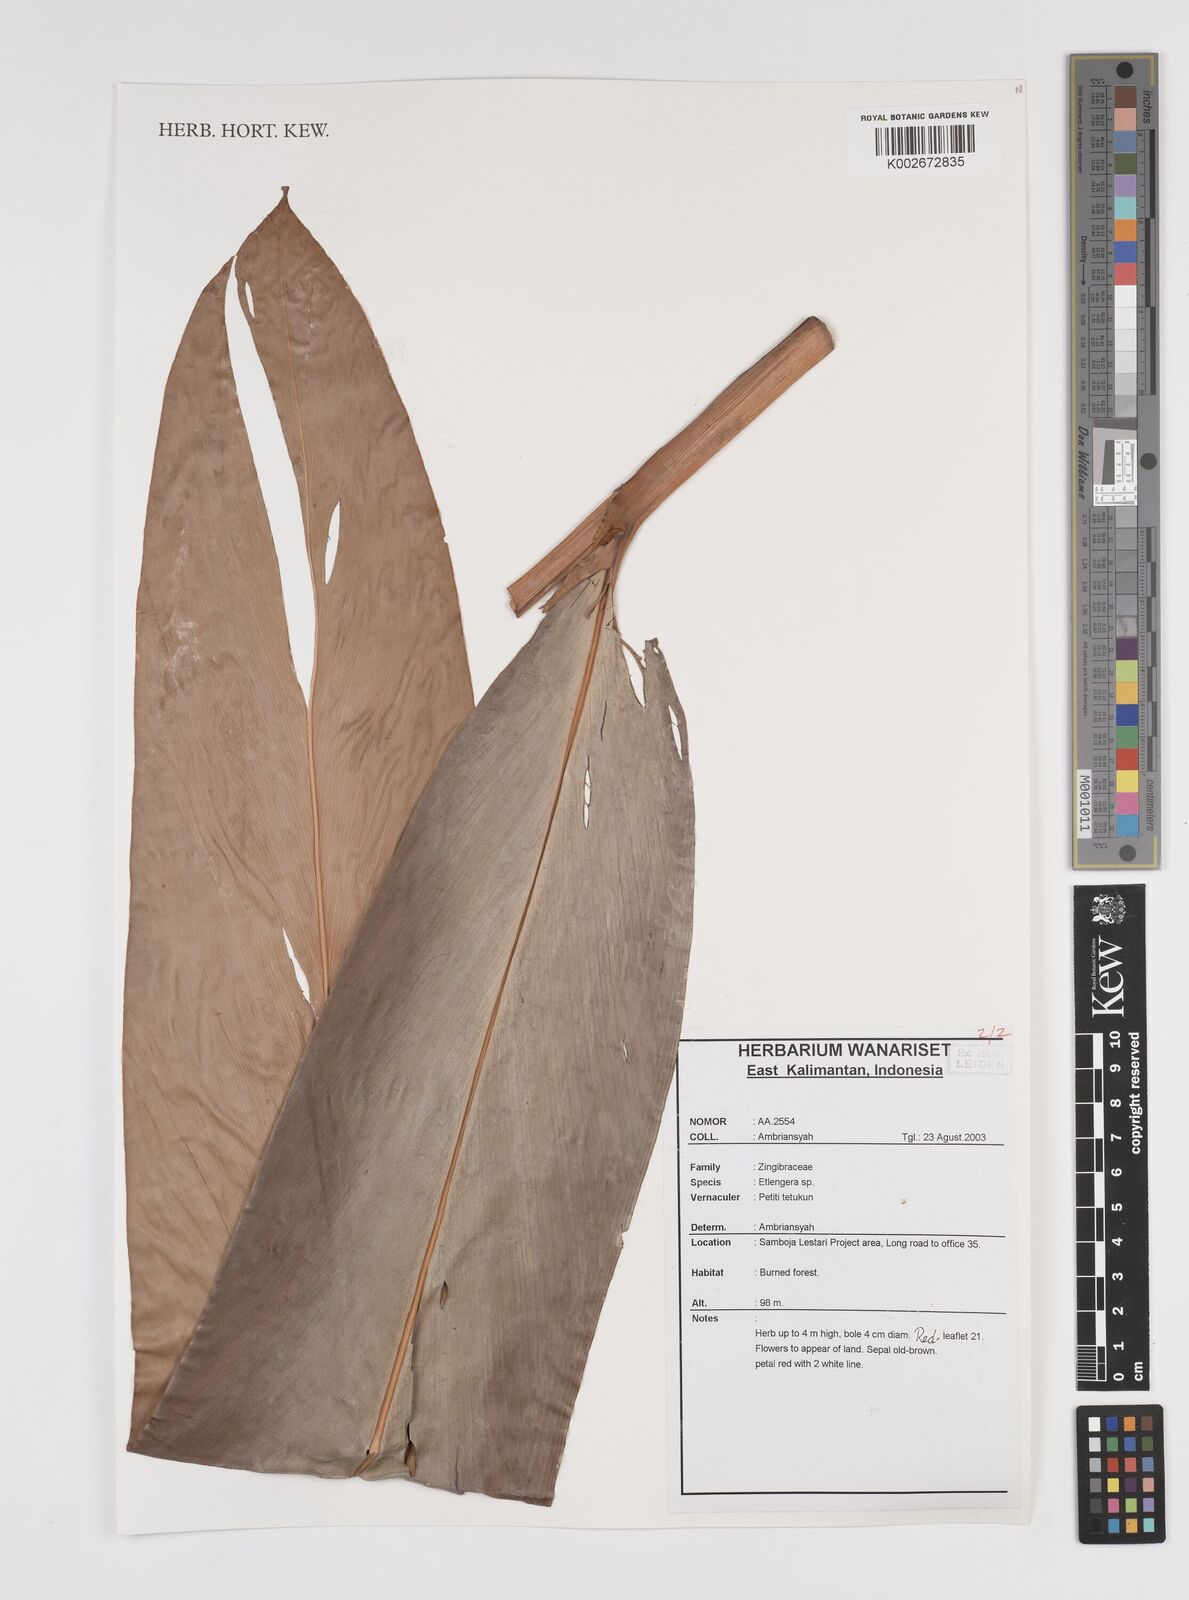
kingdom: Plantae
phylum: Tracheophyta
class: Liliopsida
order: Zingiberales
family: Zingiberaceae
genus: Etlingera
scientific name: Etlingera
